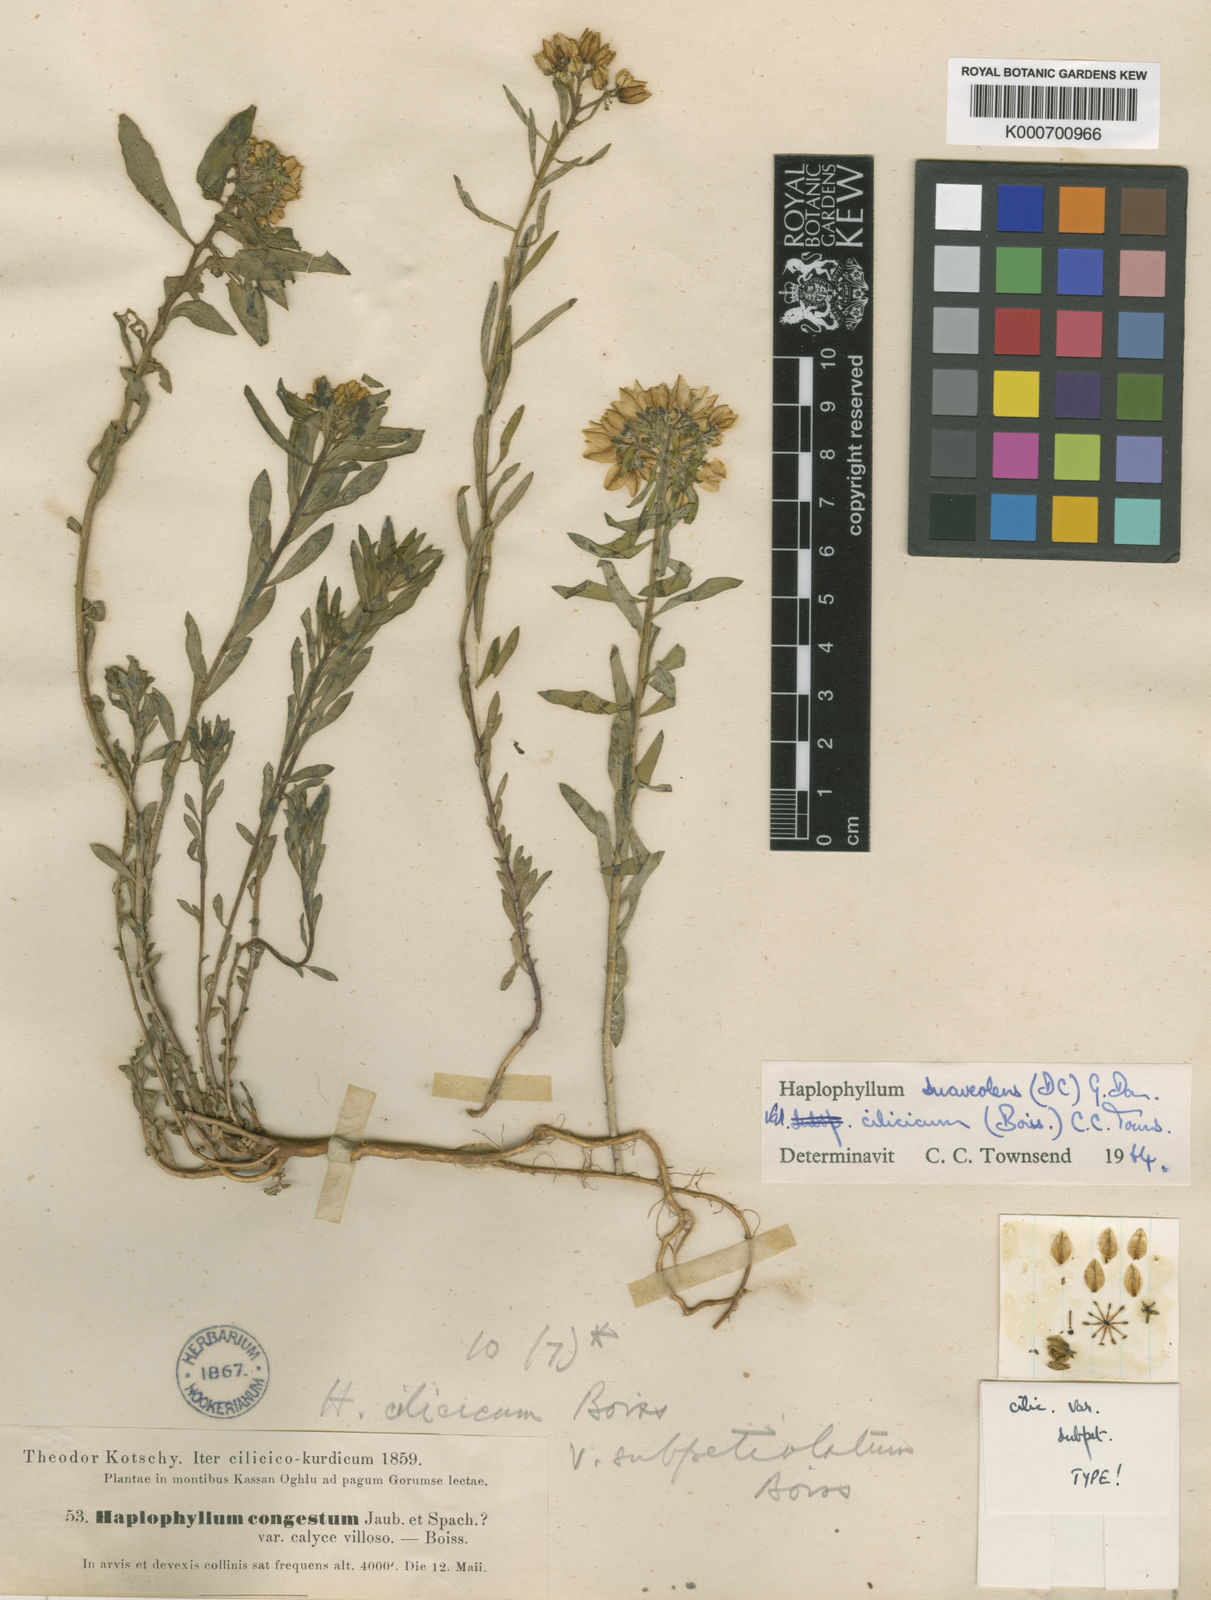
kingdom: Plantae
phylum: Tracheophyta
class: Magnoliopsida
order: Sapindales
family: Rutaceae
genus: Haplophyllum
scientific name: Haplophyllum suaveolens
